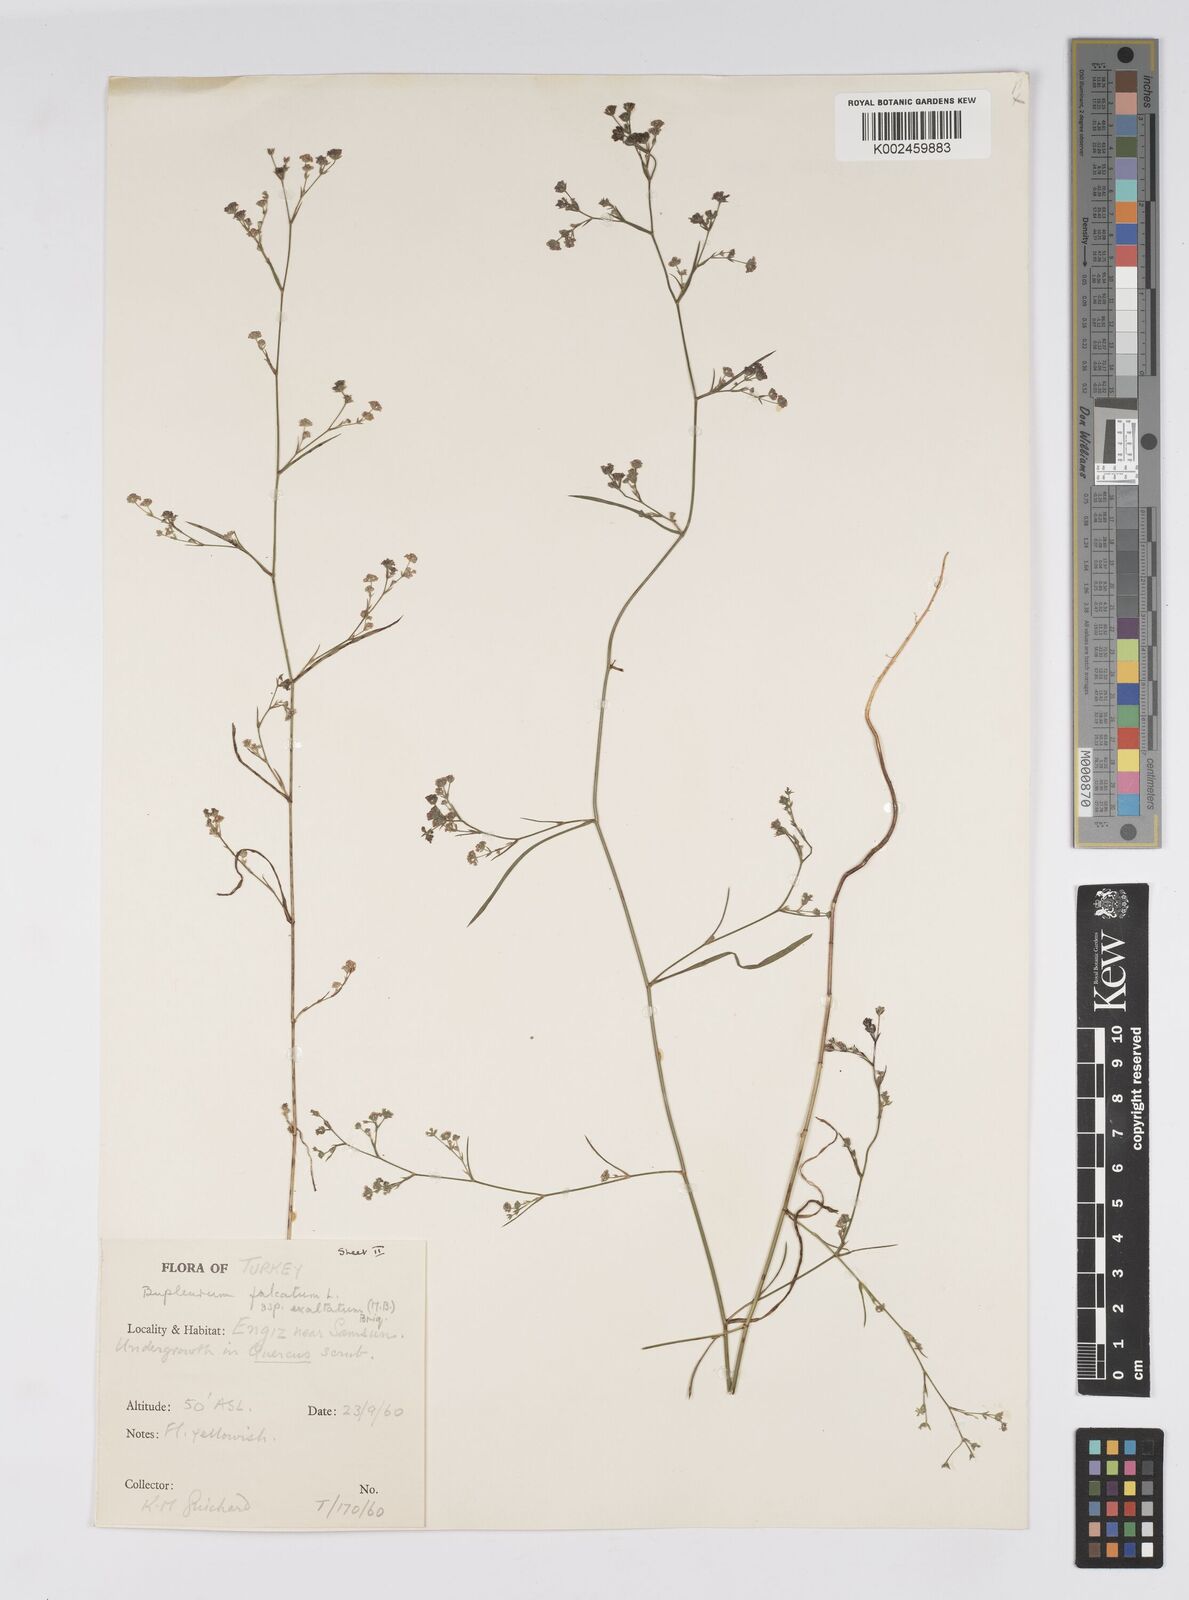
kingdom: Plantae
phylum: Tracheophyta
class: Magnoliopsida
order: Apiales
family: Apiaceae
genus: Bupleurum
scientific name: Bupleurum falcatum
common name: Sickle-leaved hare's-ear
